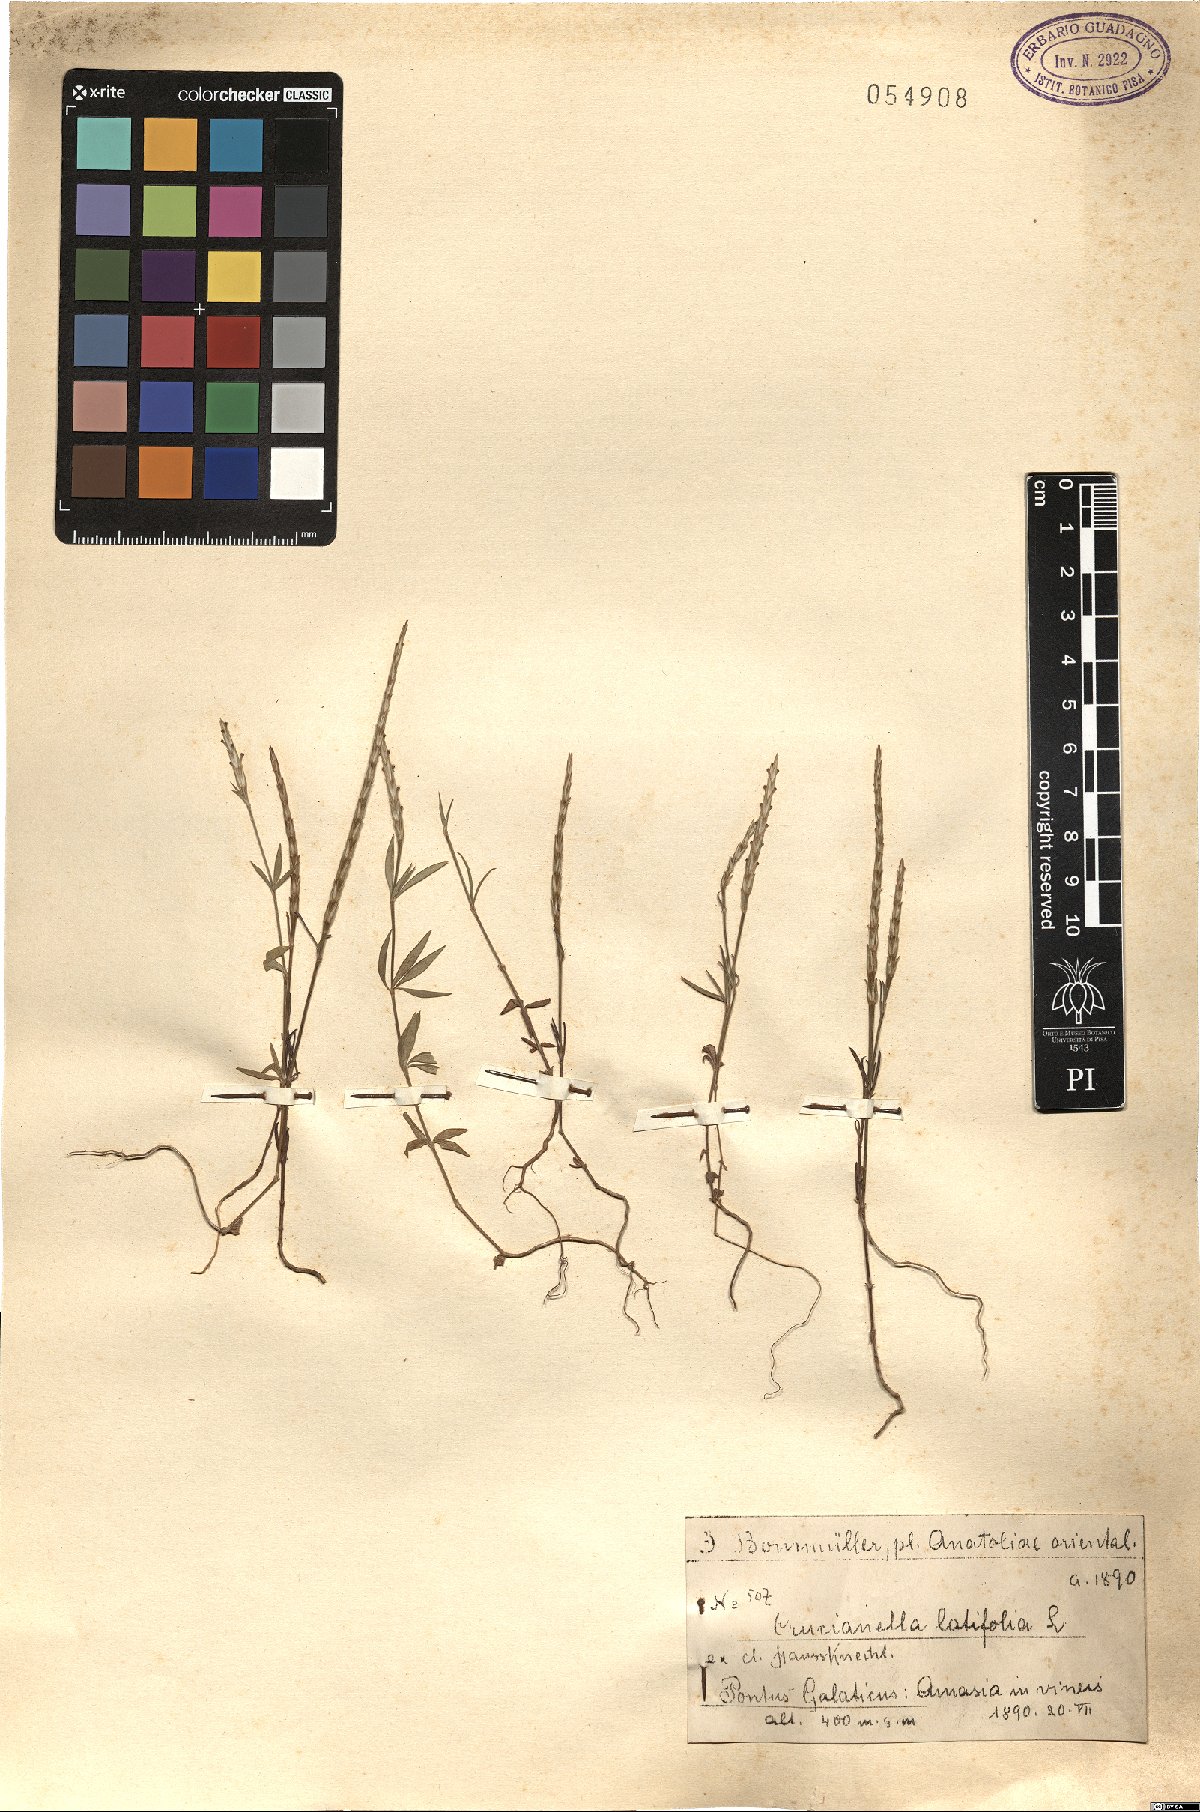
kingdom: Plantae
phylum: Tracheophyta
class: Magnoliopsida
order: Gentianales
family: Rubiaceae
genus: Crucianella
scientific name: Crucianella latifolia
